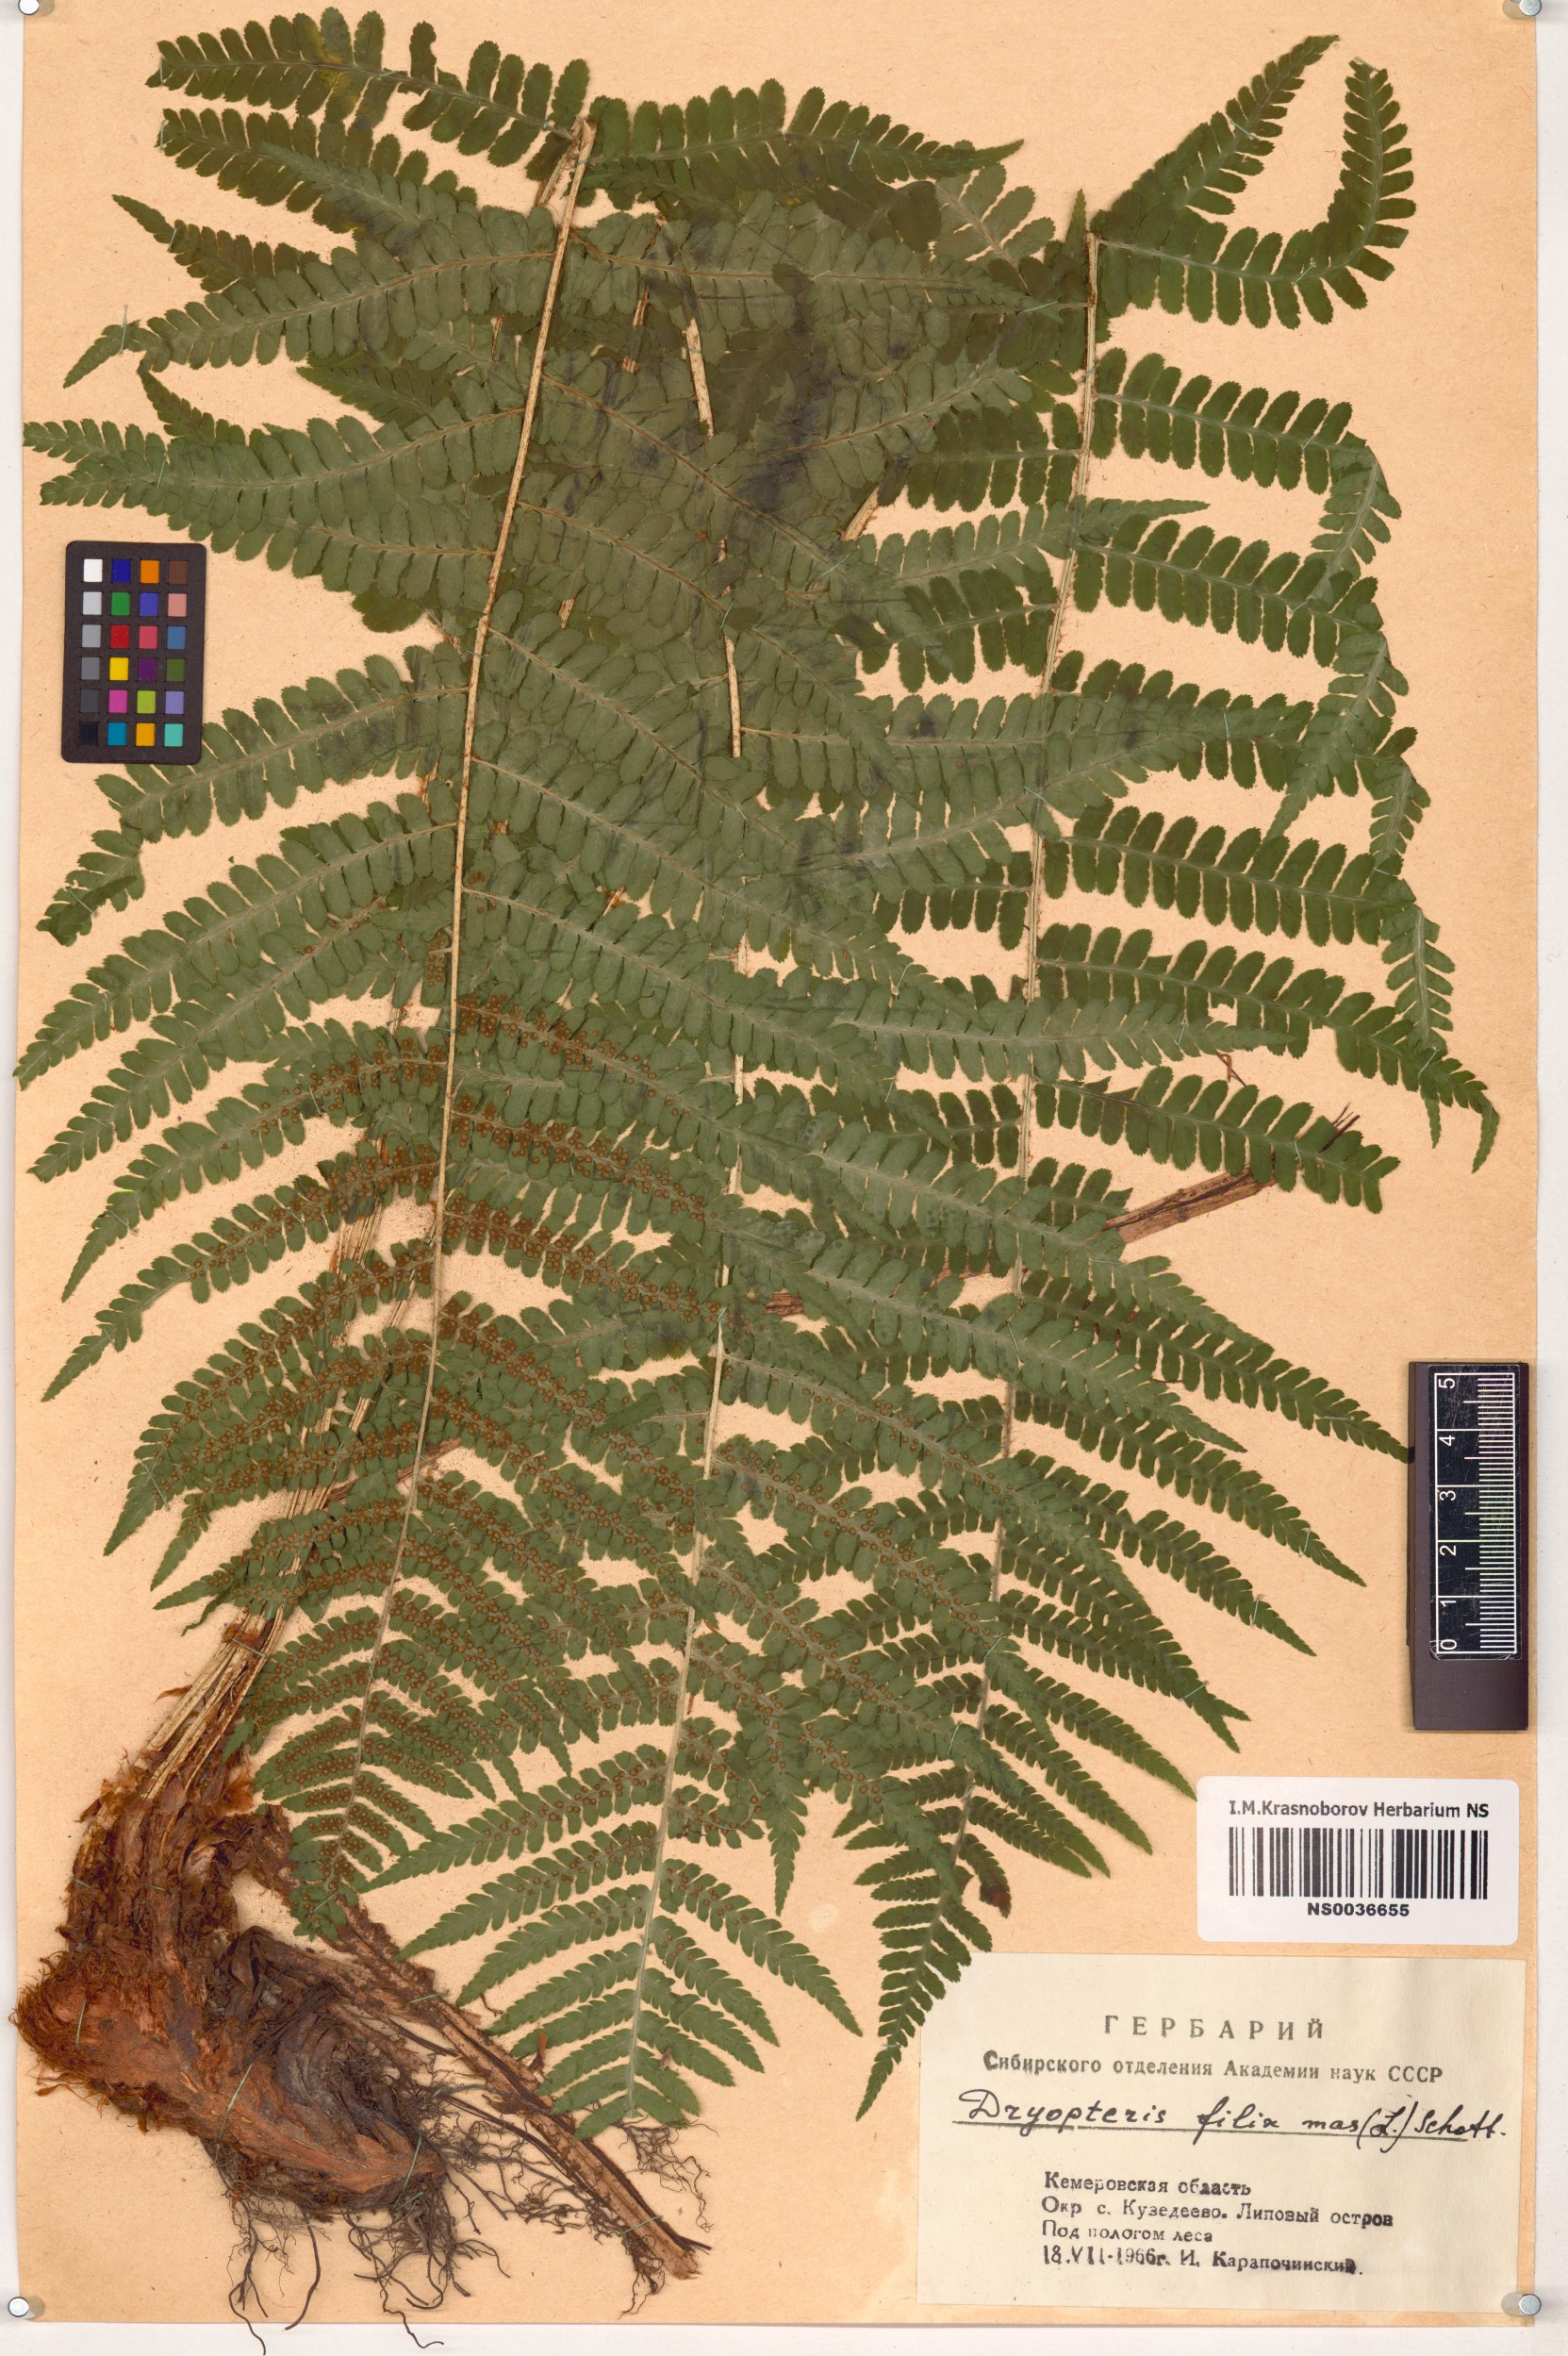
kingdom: Plantae
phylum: Tracheophyta
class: Polypodiopsida
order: Polypodiales
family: Dryopteridaceae
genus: Dryopteris
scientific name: Dryopteris filix-mas
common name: Male fern
